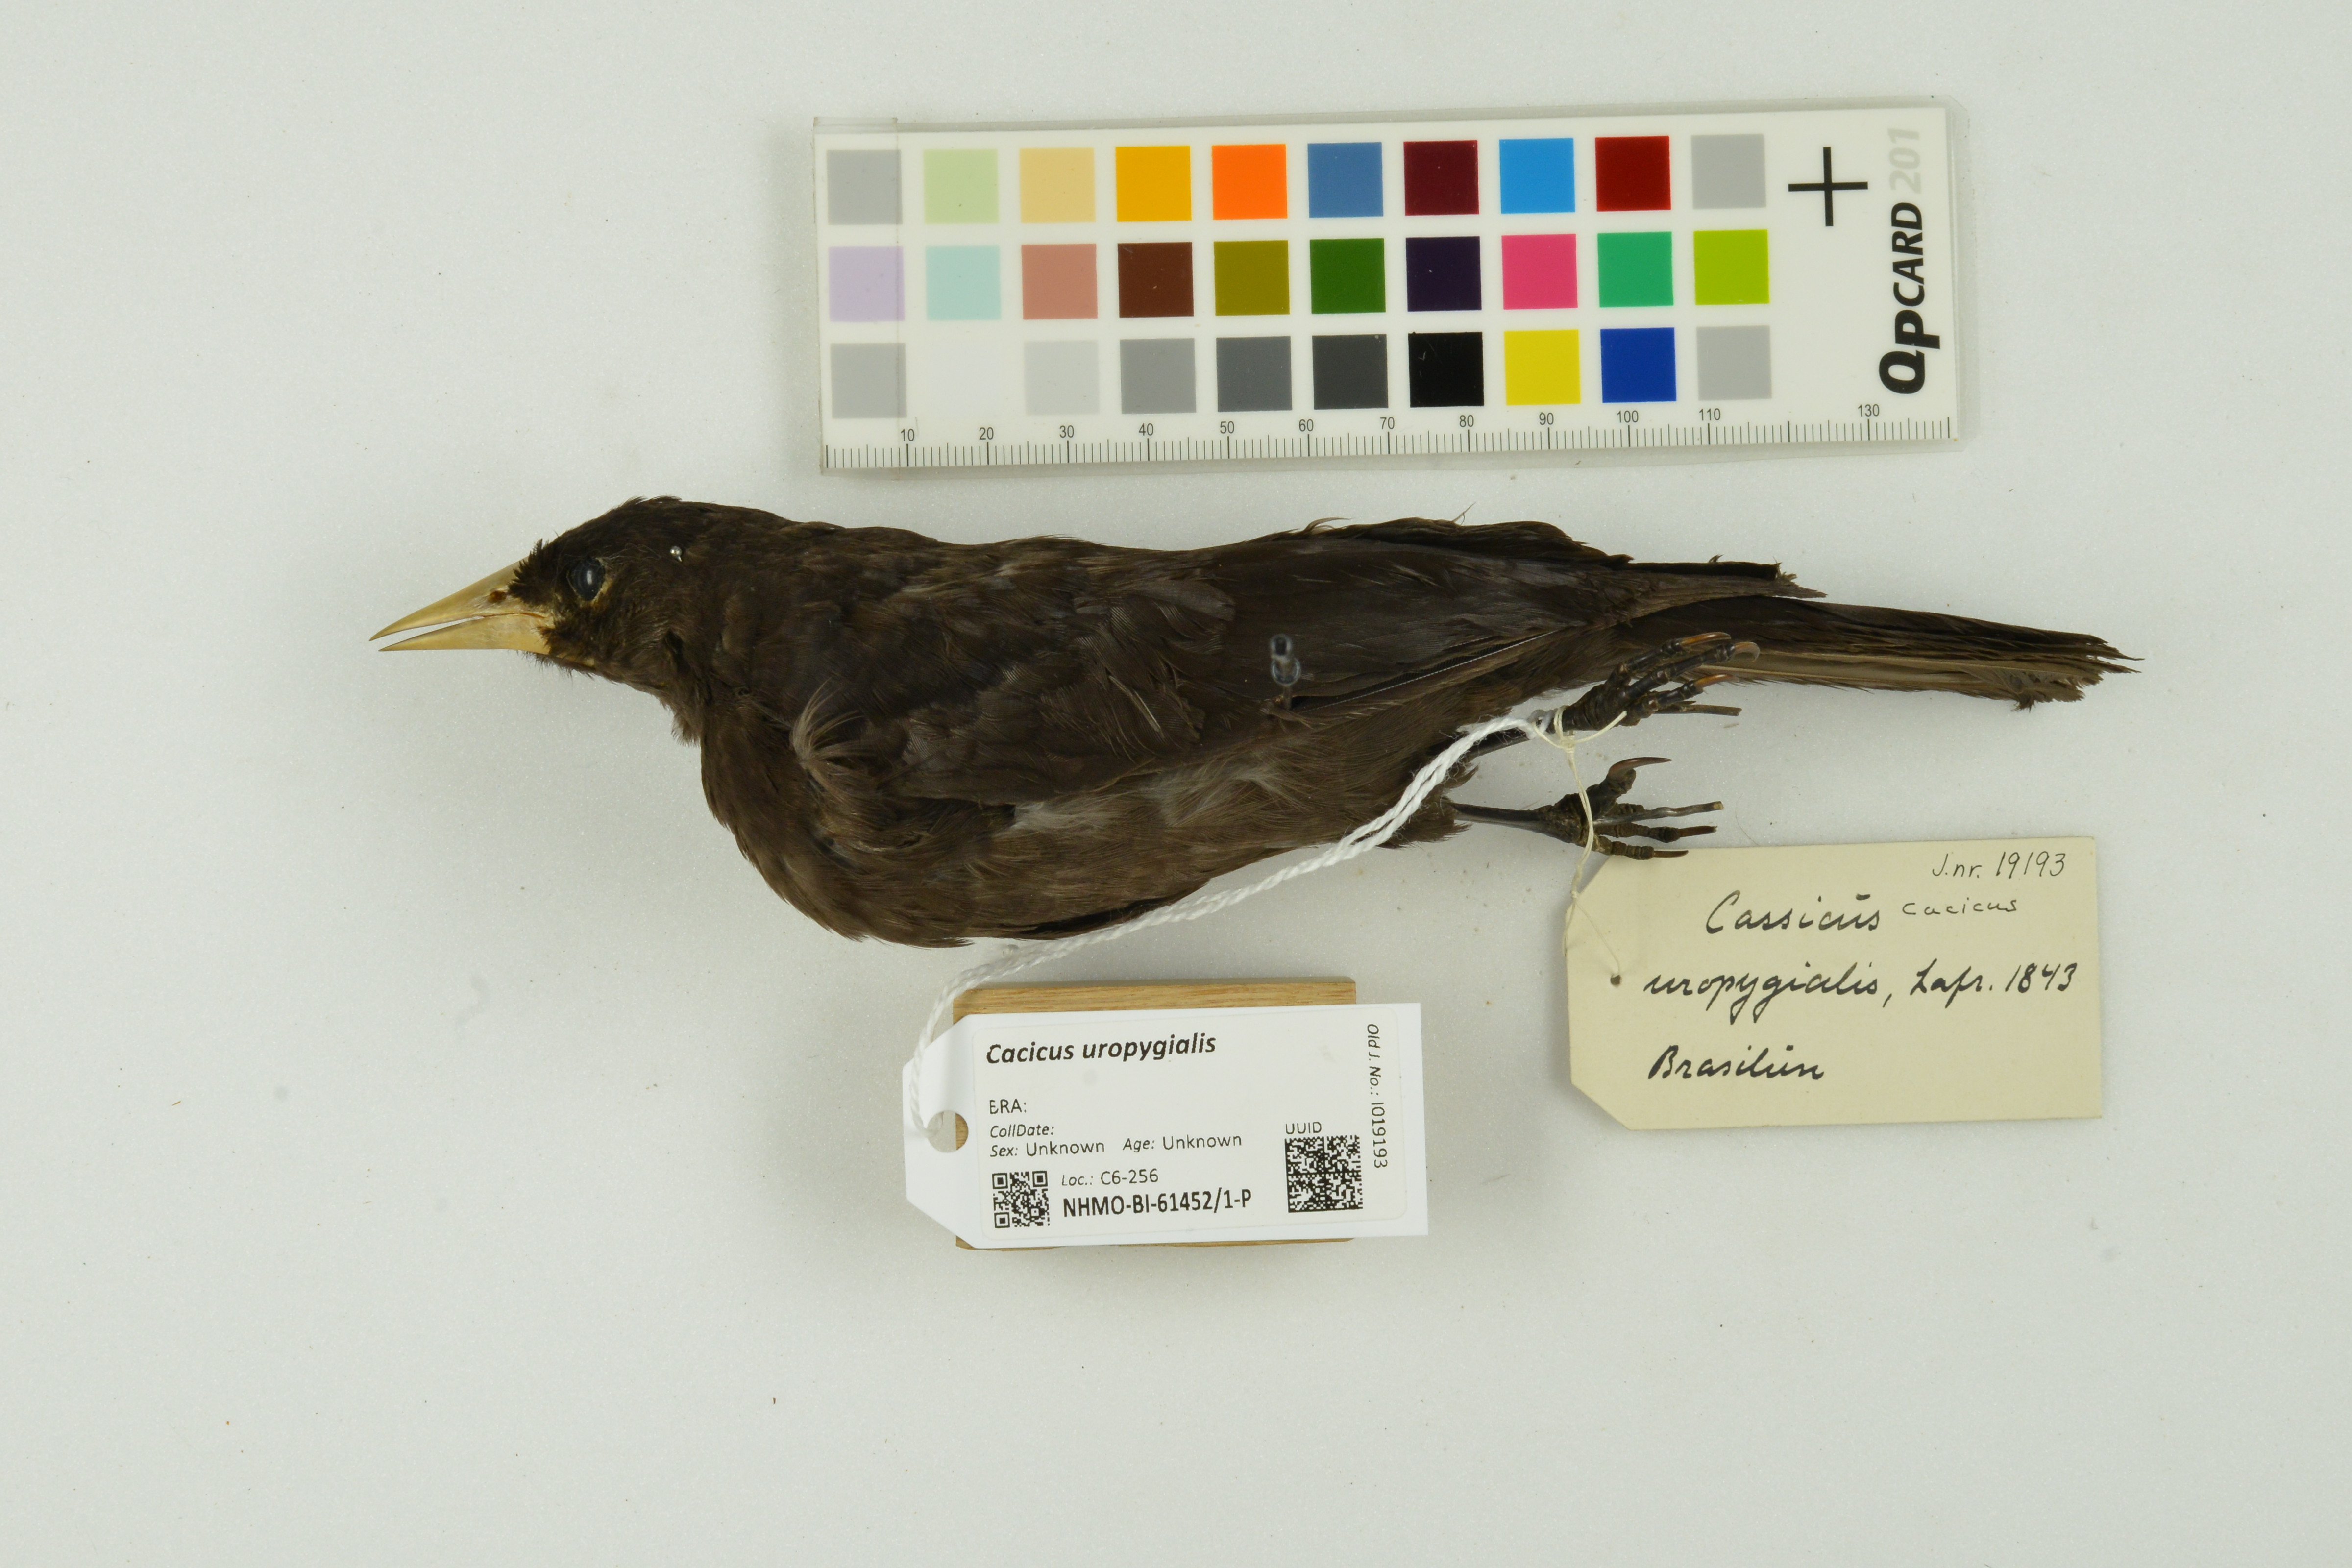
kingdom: Animalia
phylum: Chordata
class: Aves
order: Passeriformes
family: Icteridae
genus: Cacicus
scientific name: Cacicus uropygialis
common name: Scarlet-rumped cacique
